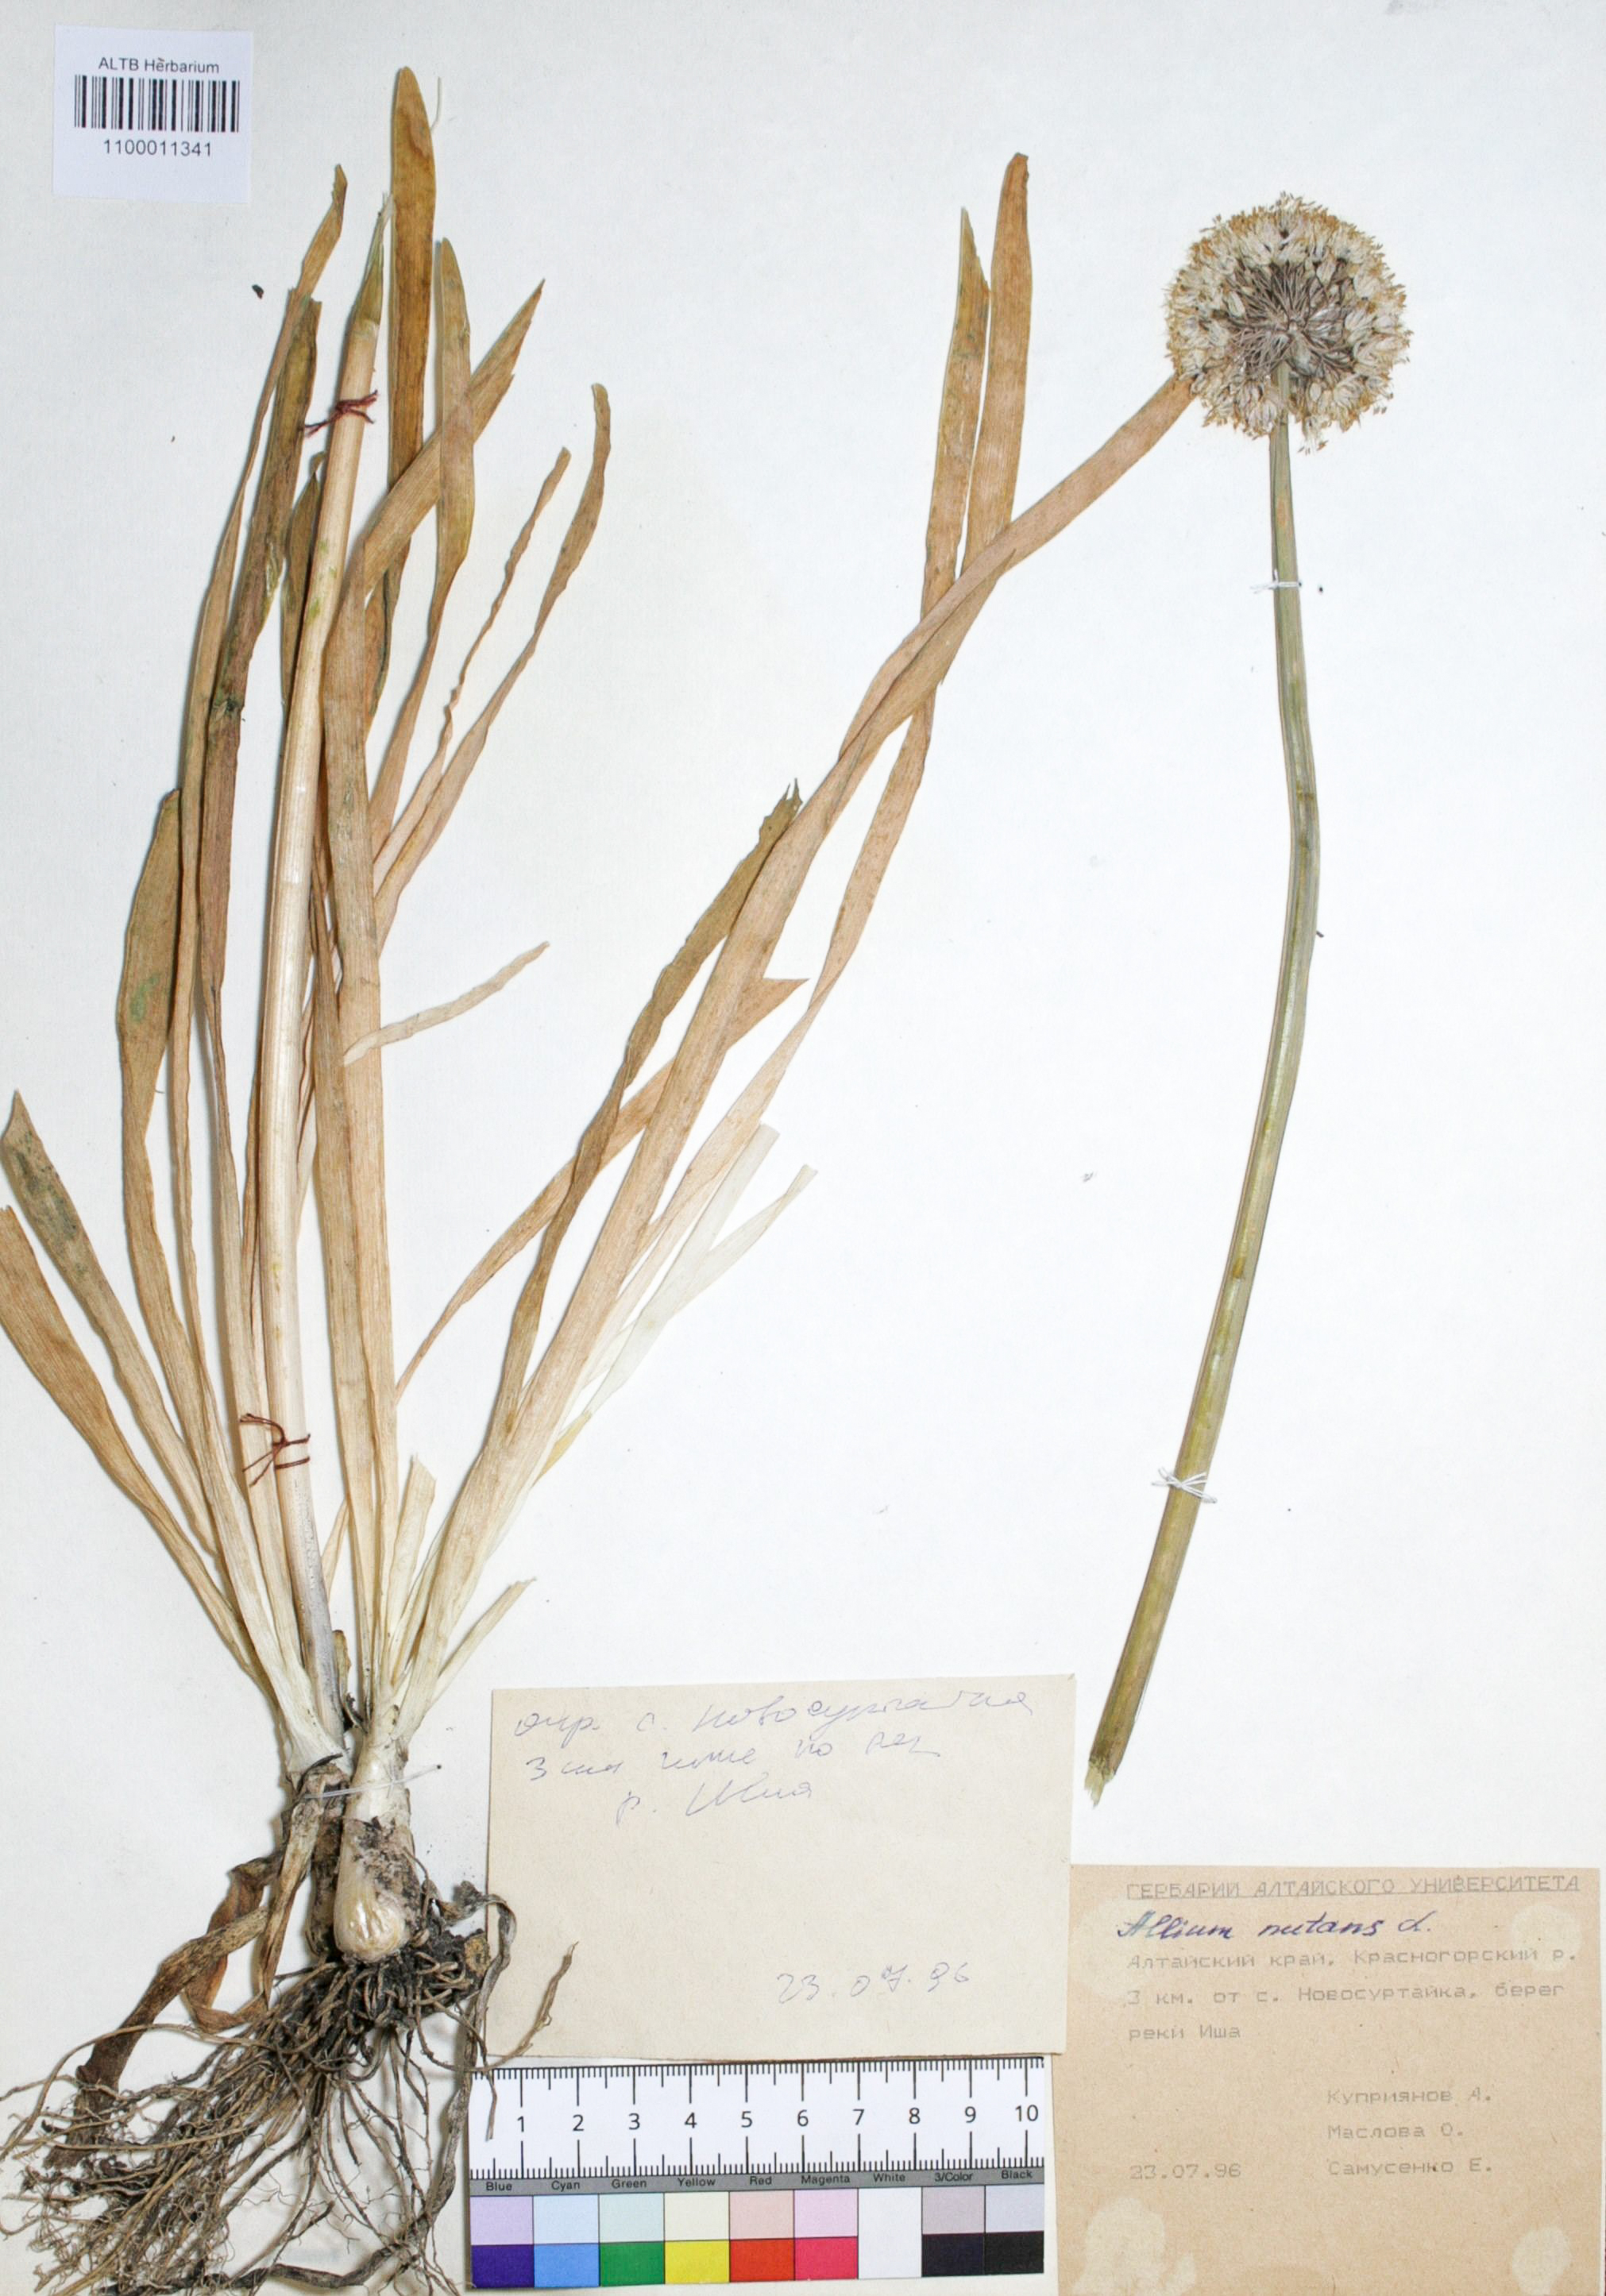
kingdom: Plantae
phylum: Tracheophyta
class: Liliopsida
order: Asparagales
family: Amaryllidaceae
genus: Allium
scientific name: Allium nutans
